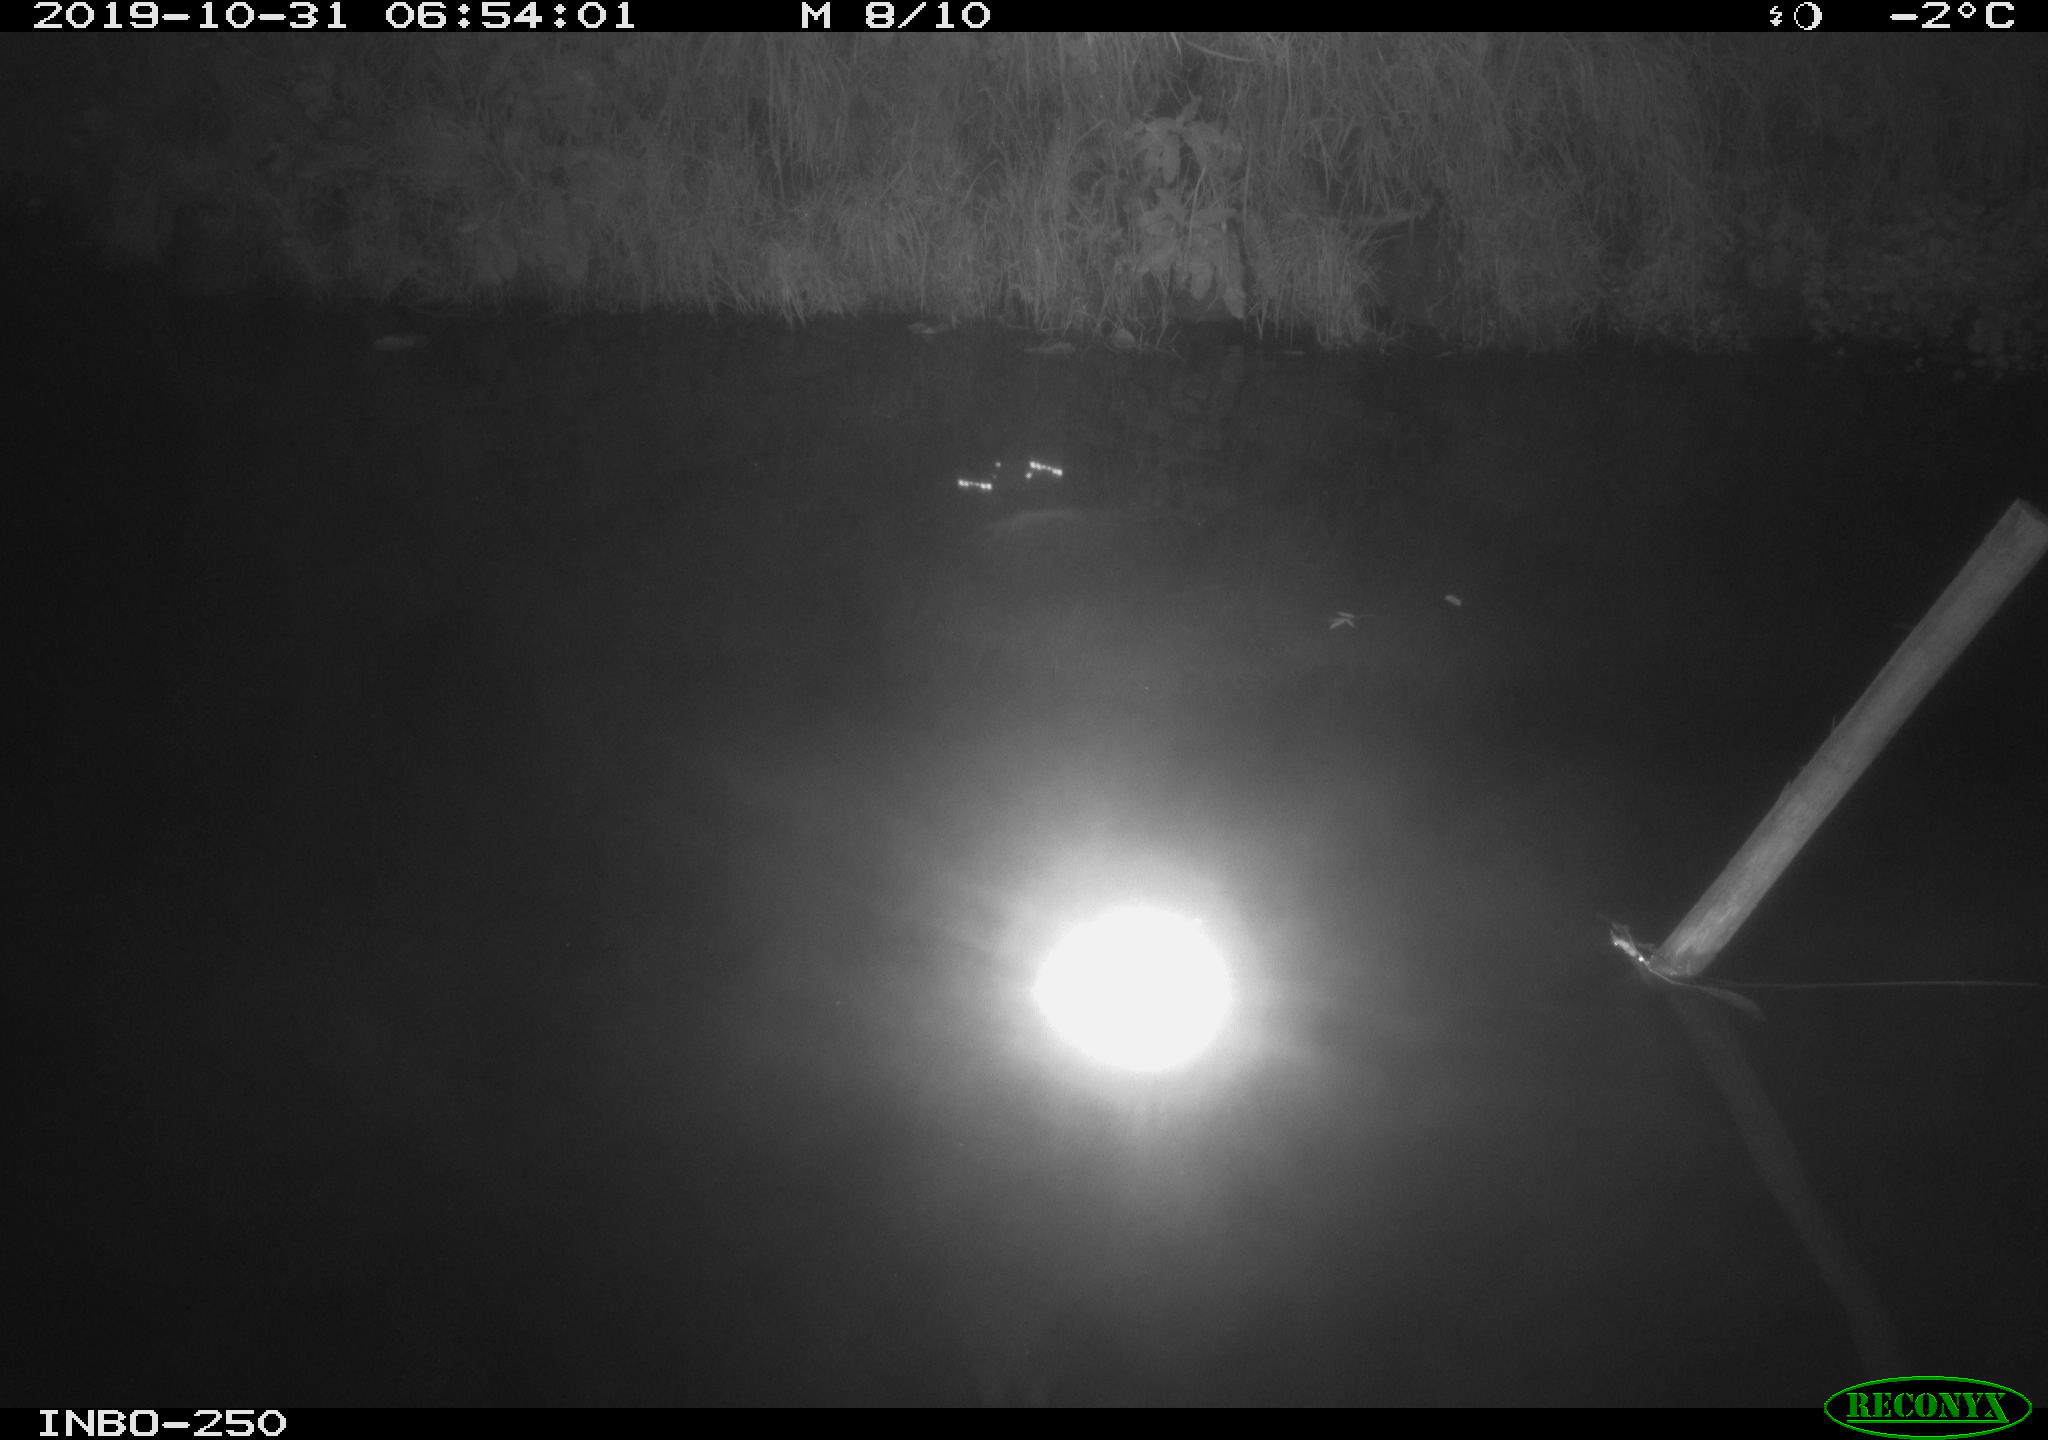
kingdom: Animalia
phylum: Chordata
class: Aves
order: Anseriformes
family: Anatidae
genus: Anas
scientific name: Anas platyrhynchos
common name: Mallard
